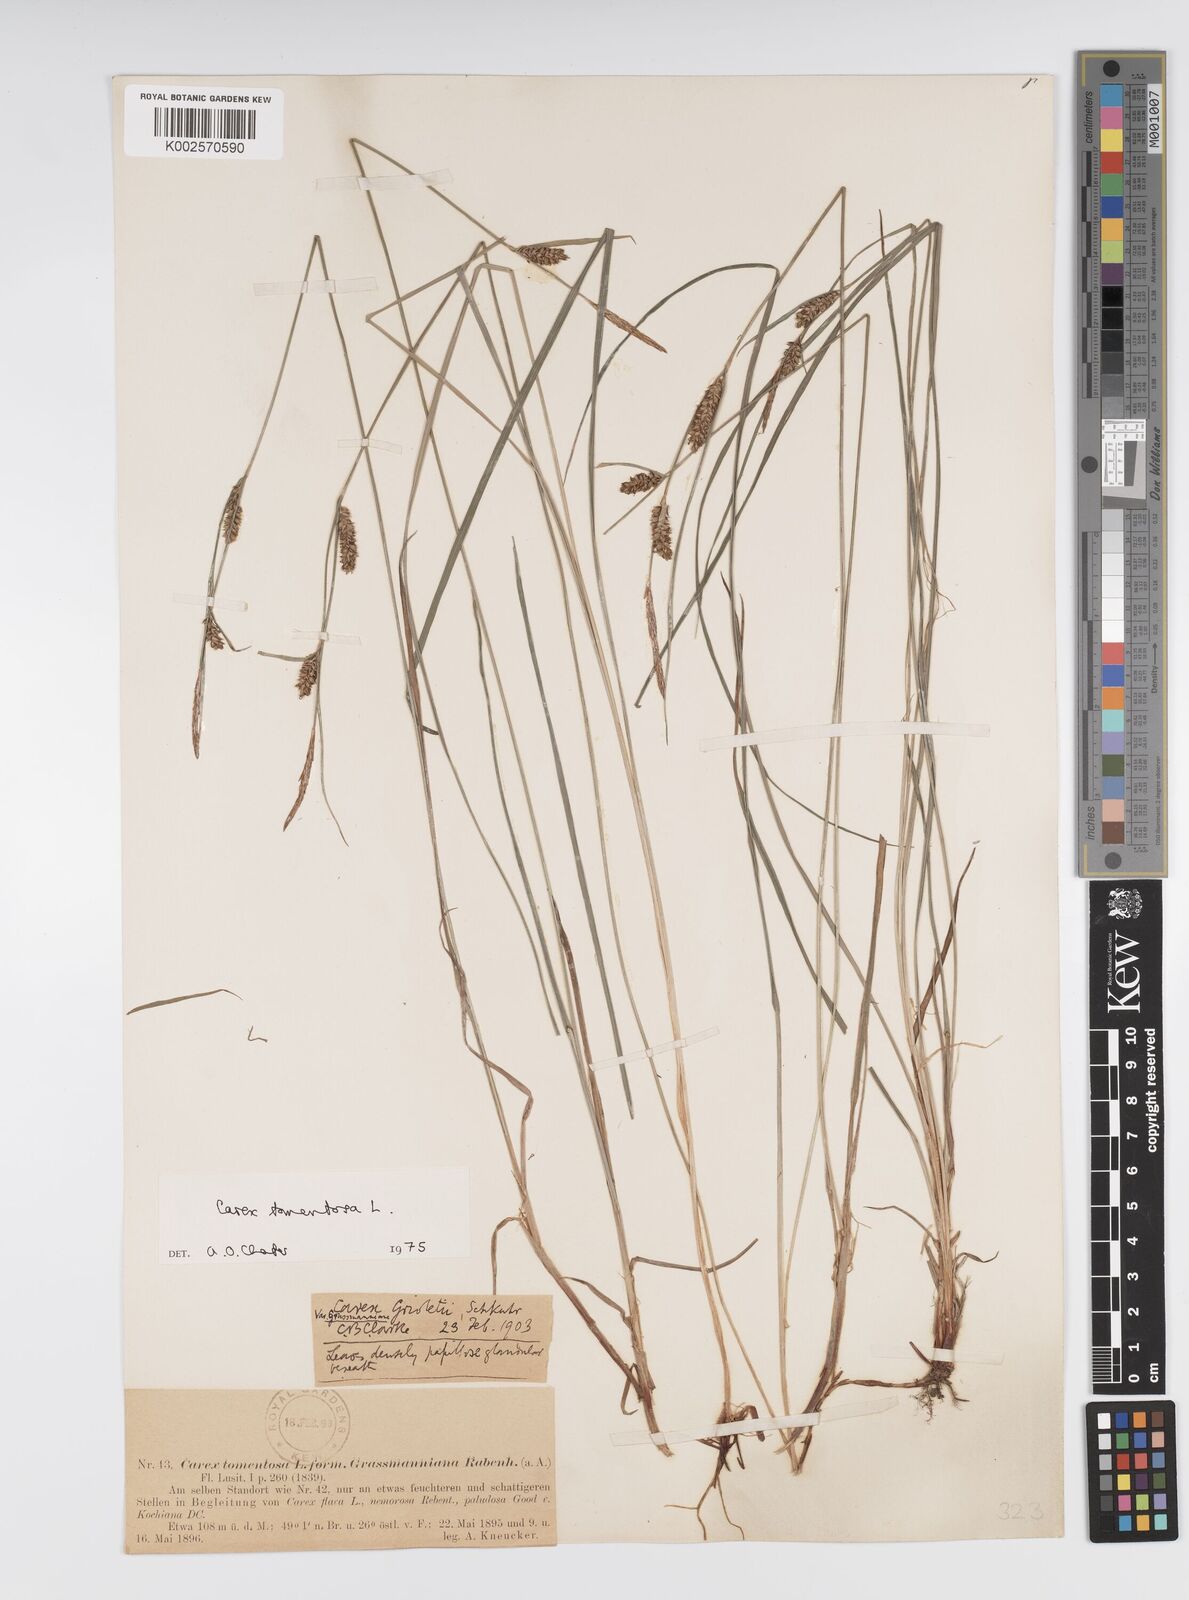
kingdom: Plantae
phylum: Tracheophyta
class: Liliopsida
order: Poales
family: Cyperaceae
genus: Carex
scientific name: Carex montana
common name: Soft-leaved sedge
